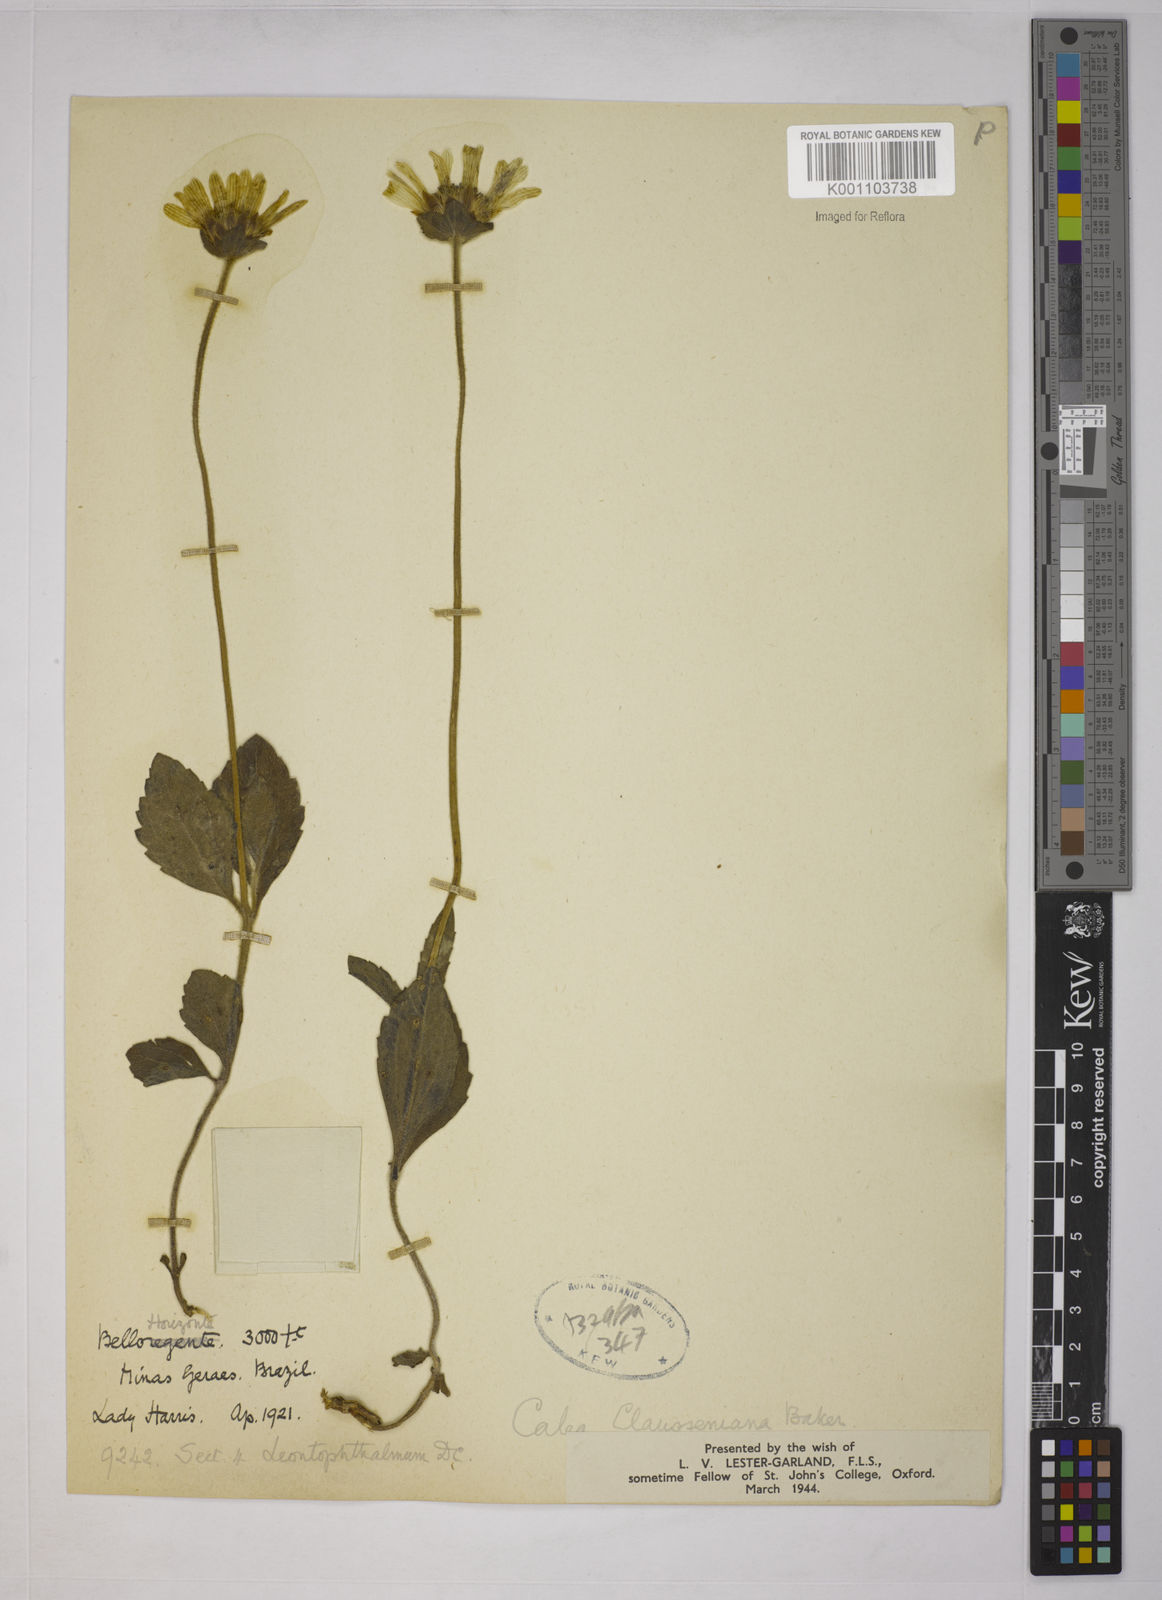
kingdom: Plantae
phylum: Tracheophyta
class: Magnoliopsida
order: Asterales
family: Asteraceae
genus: Calea
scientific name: Calea clausseniana
